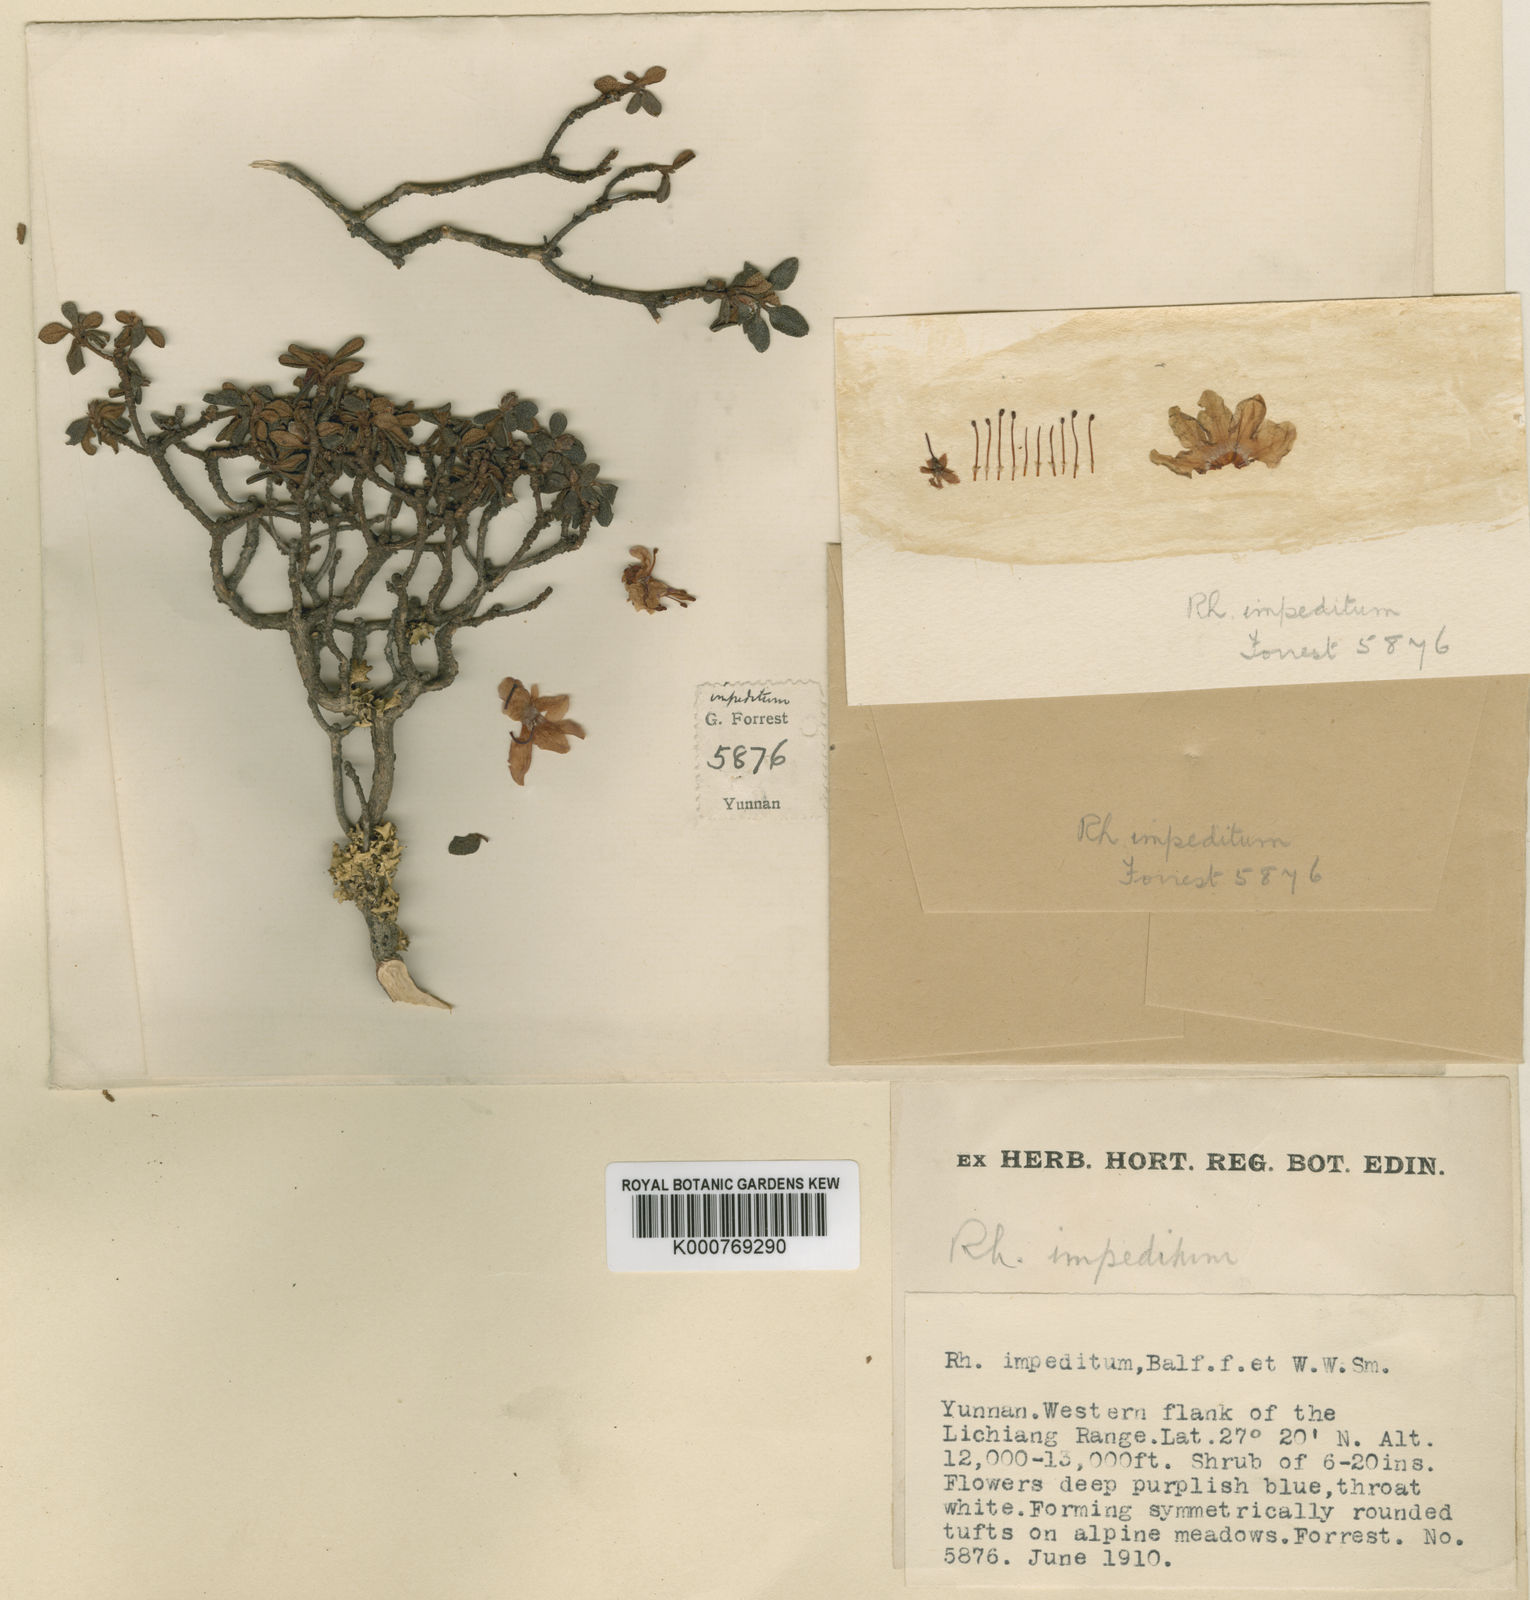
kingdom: Plantae
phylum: Tracheophyta
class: Magnoliopsida
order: Ericales
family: Ericaceae
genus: Rhododendron
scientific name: Rhododendron impeditum
